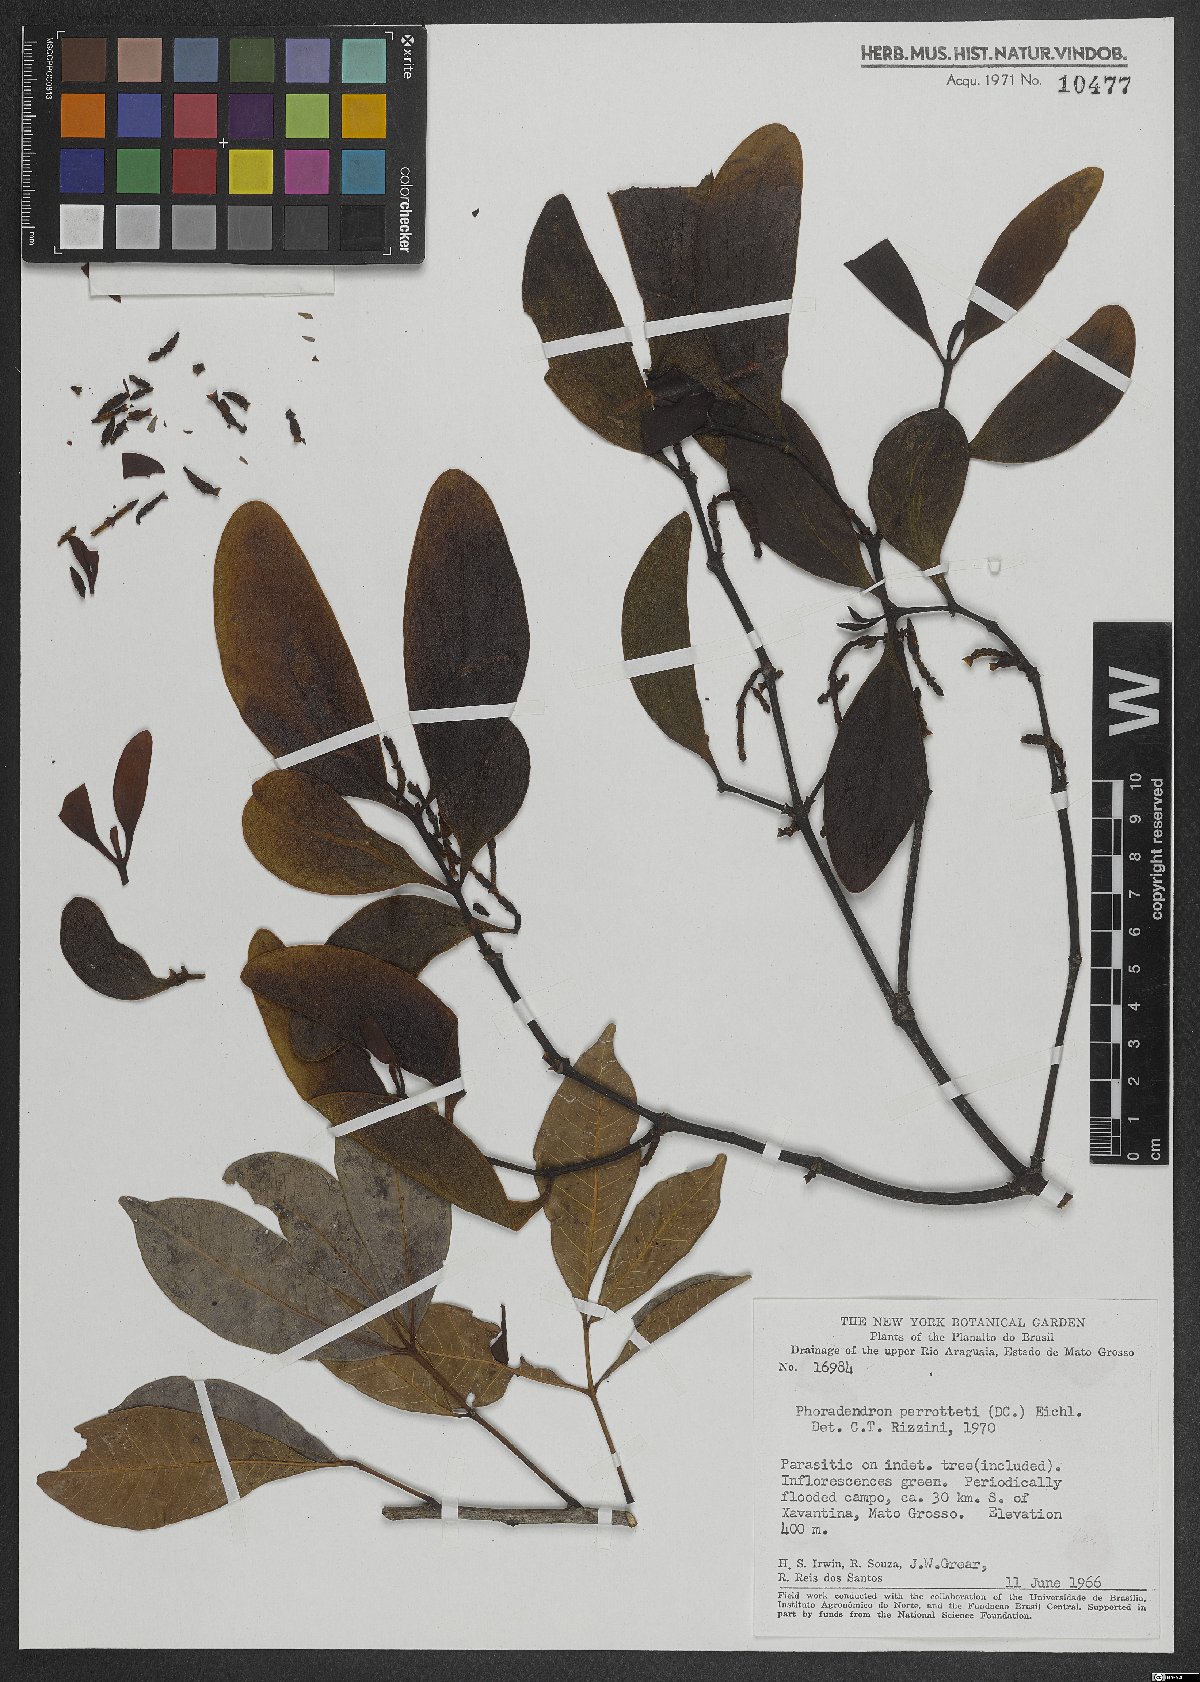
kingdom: Plantae
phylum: Tracheophyta
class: Magnoliopsida
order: Santalales
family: Viscaceae
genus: Phoradendron
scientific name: Phoradendron perrottetii
